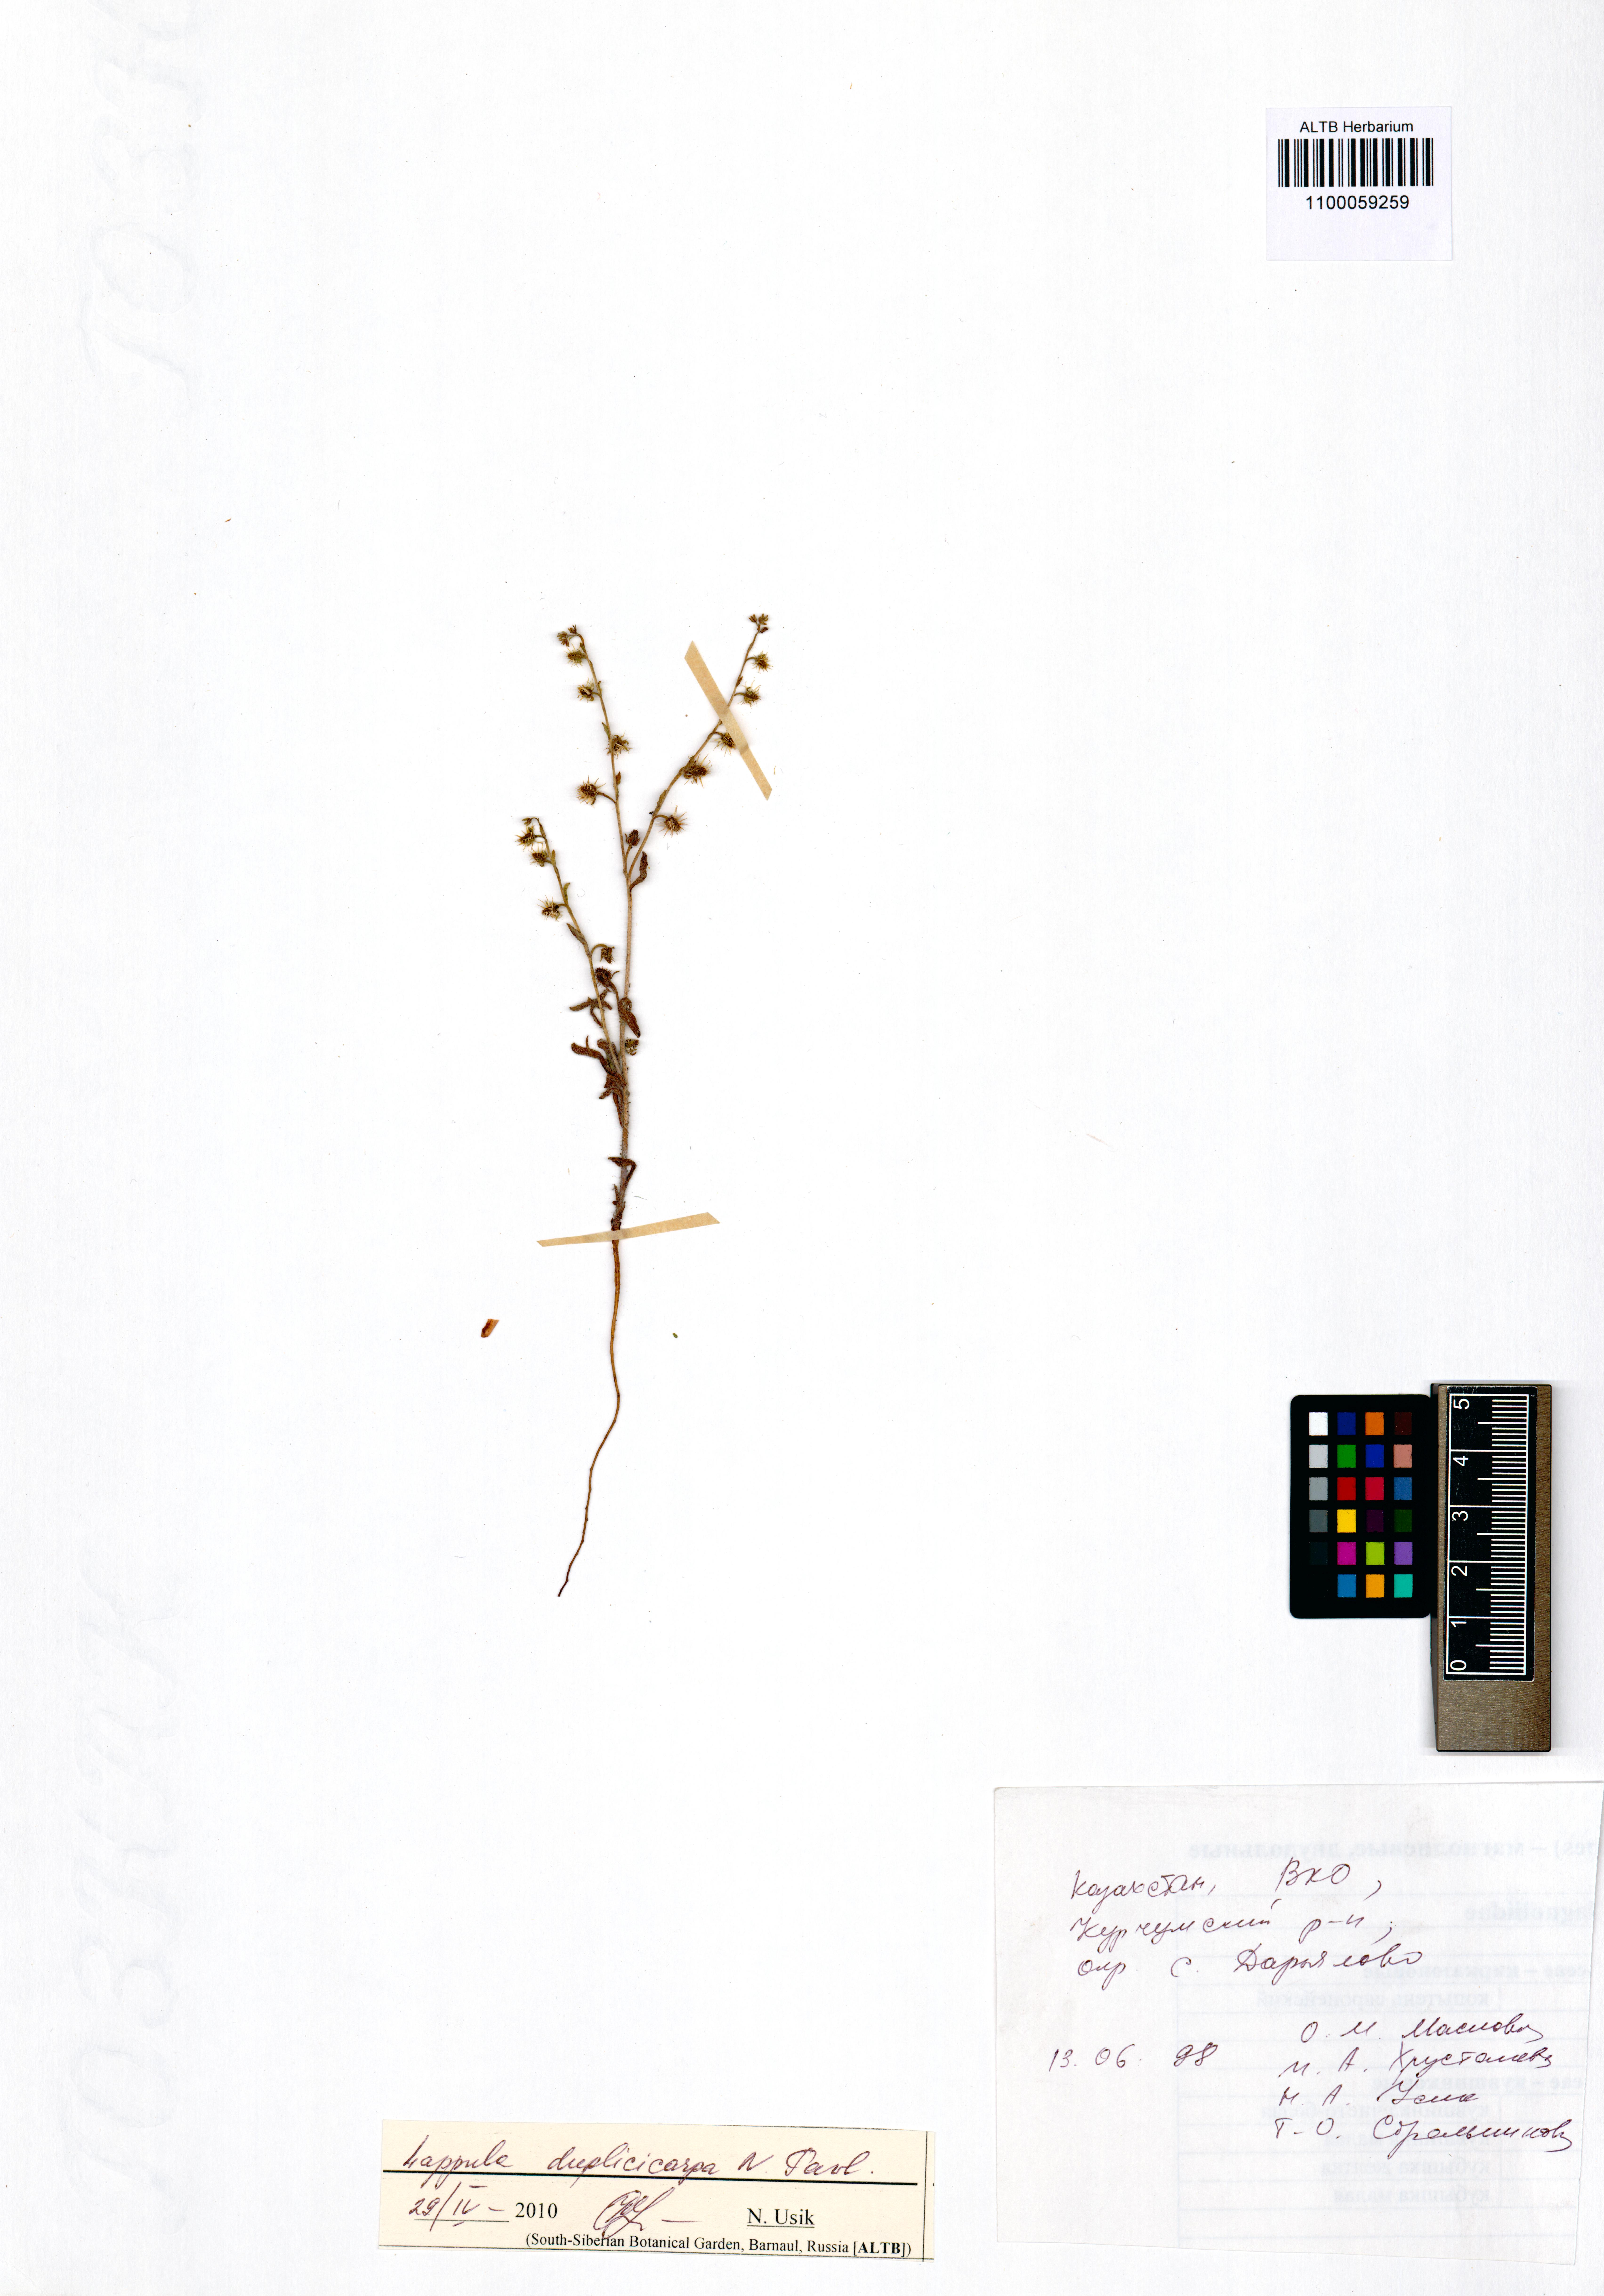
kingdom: Plantae
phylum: Tracheophyta
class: Magnoliopsida
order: Boraginales
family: Boraginaceae
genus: Lappula
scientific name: Lappula duplicicarpa
